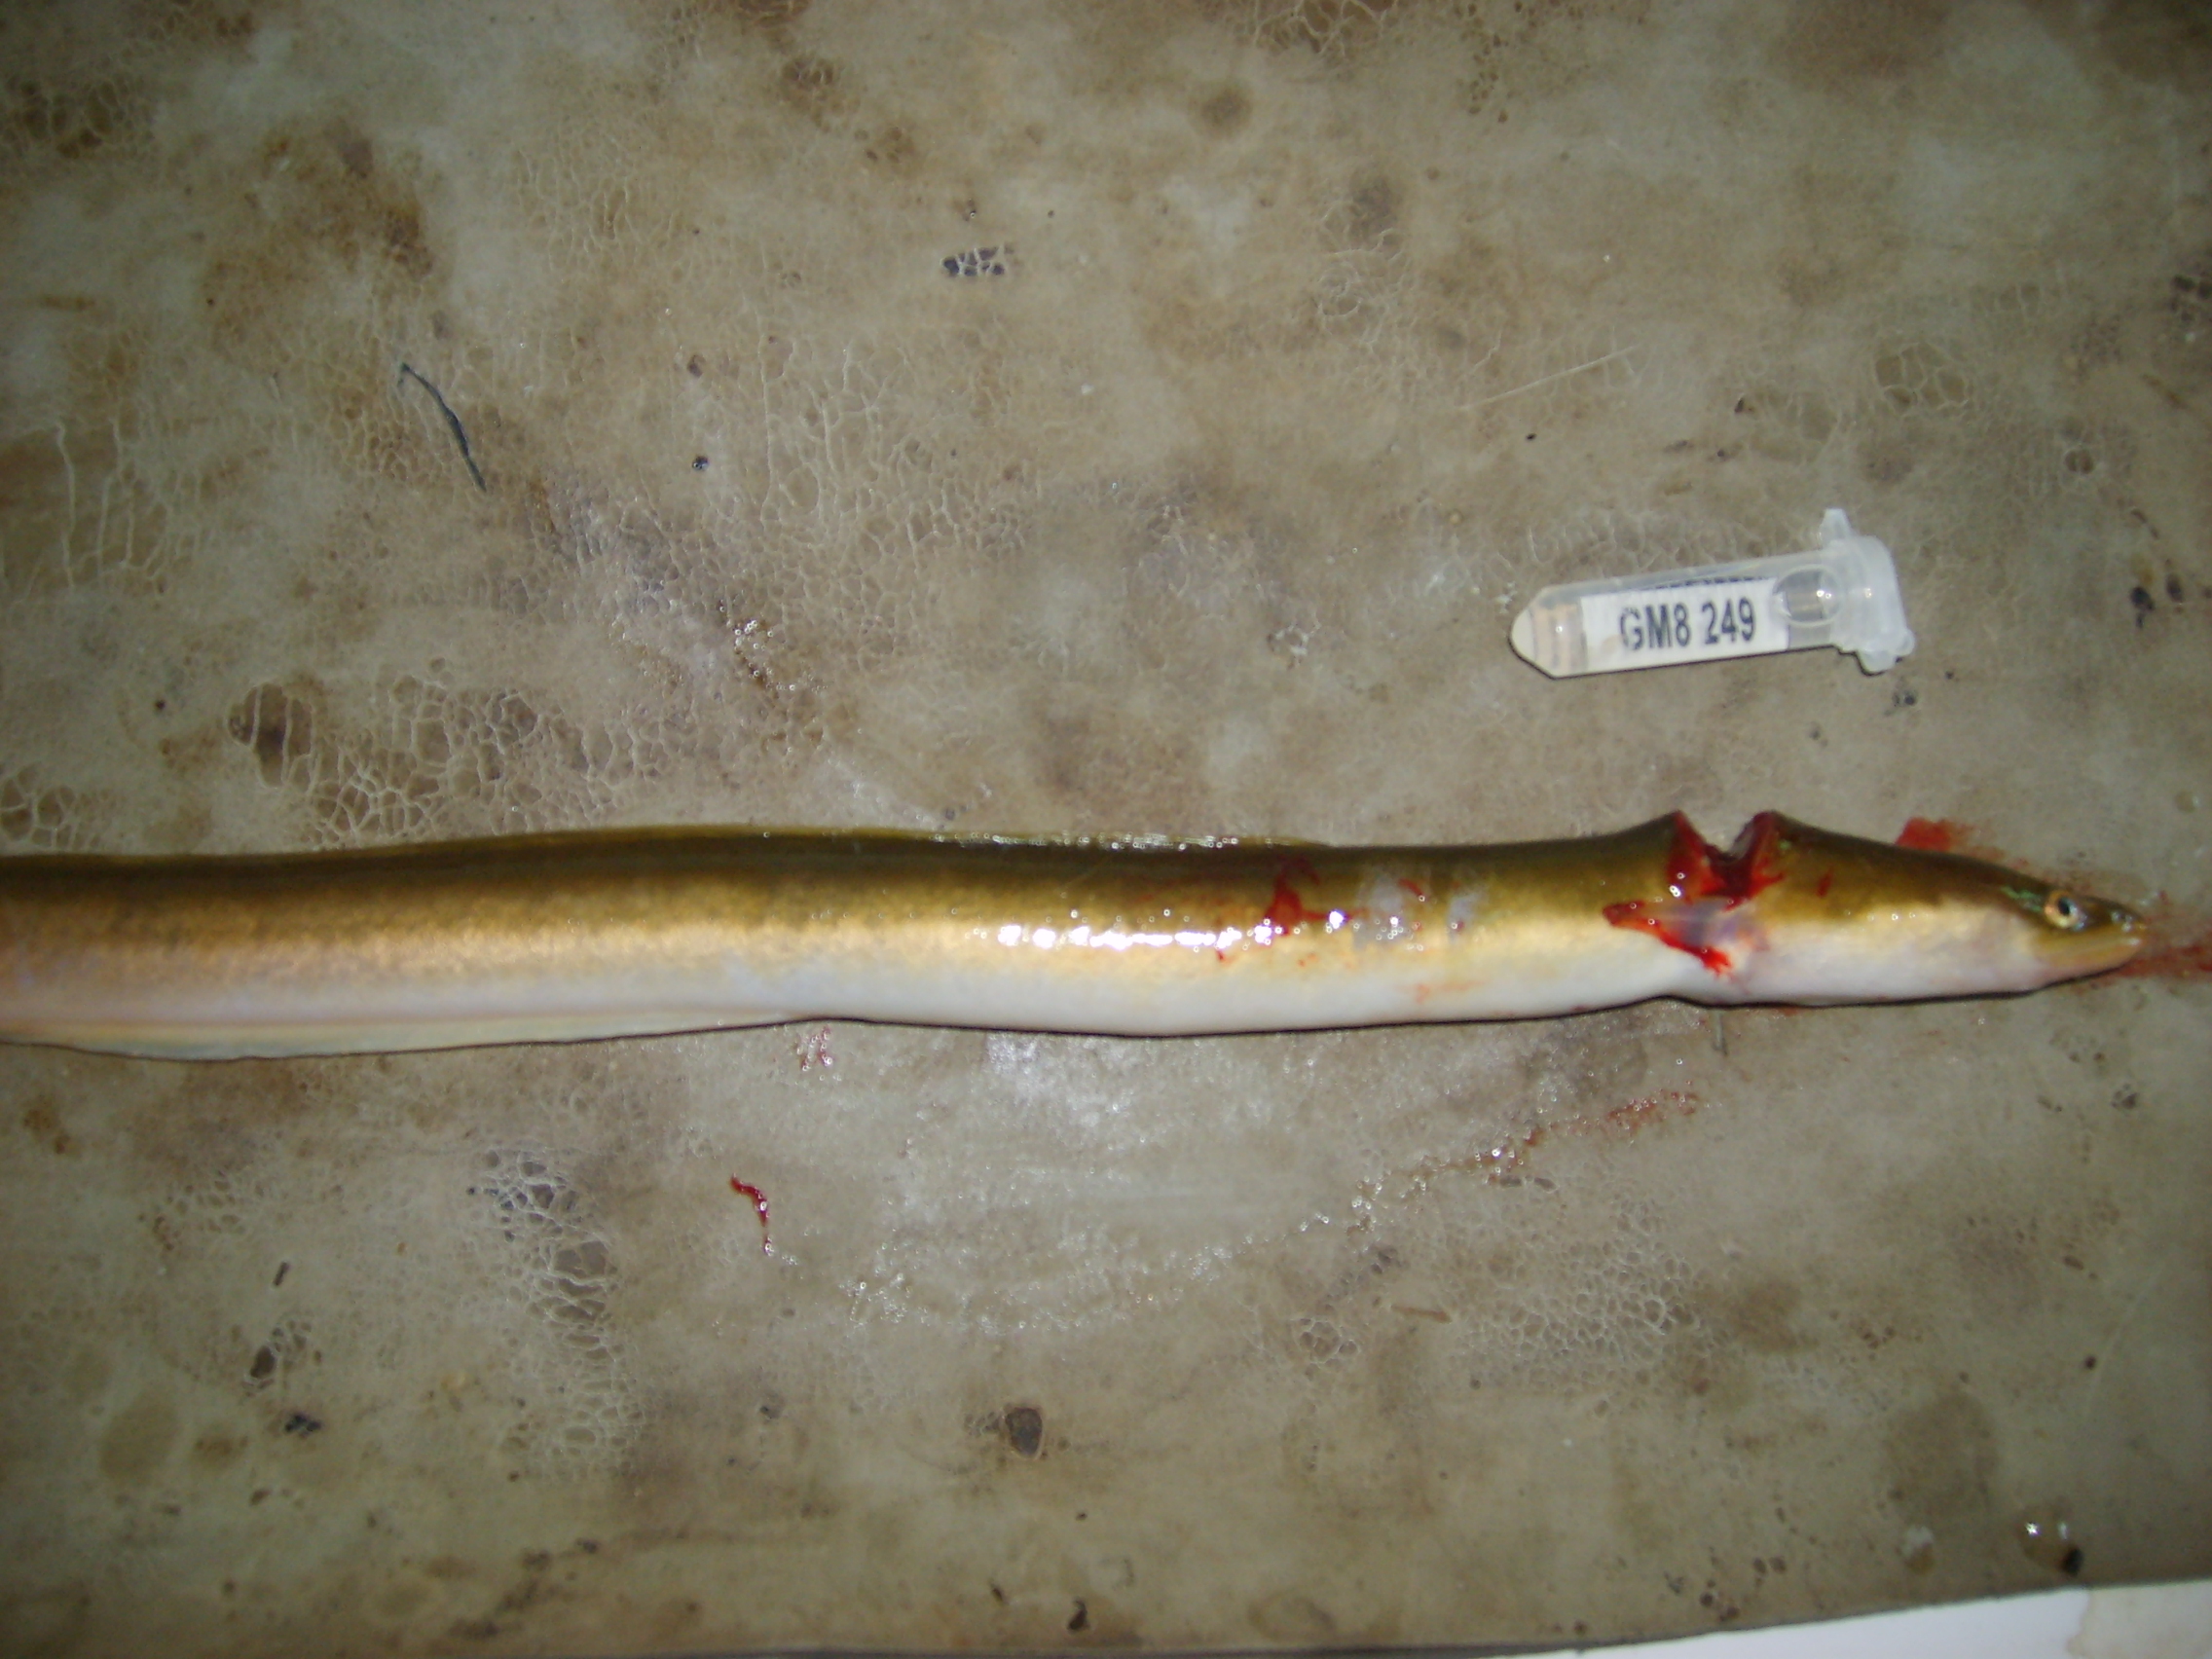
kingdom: Animalia
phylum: Chordata
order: Anguilliformes
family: Anguillidae
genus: Anguilla
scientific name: Anguilla mossambica
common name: African longfin eel
